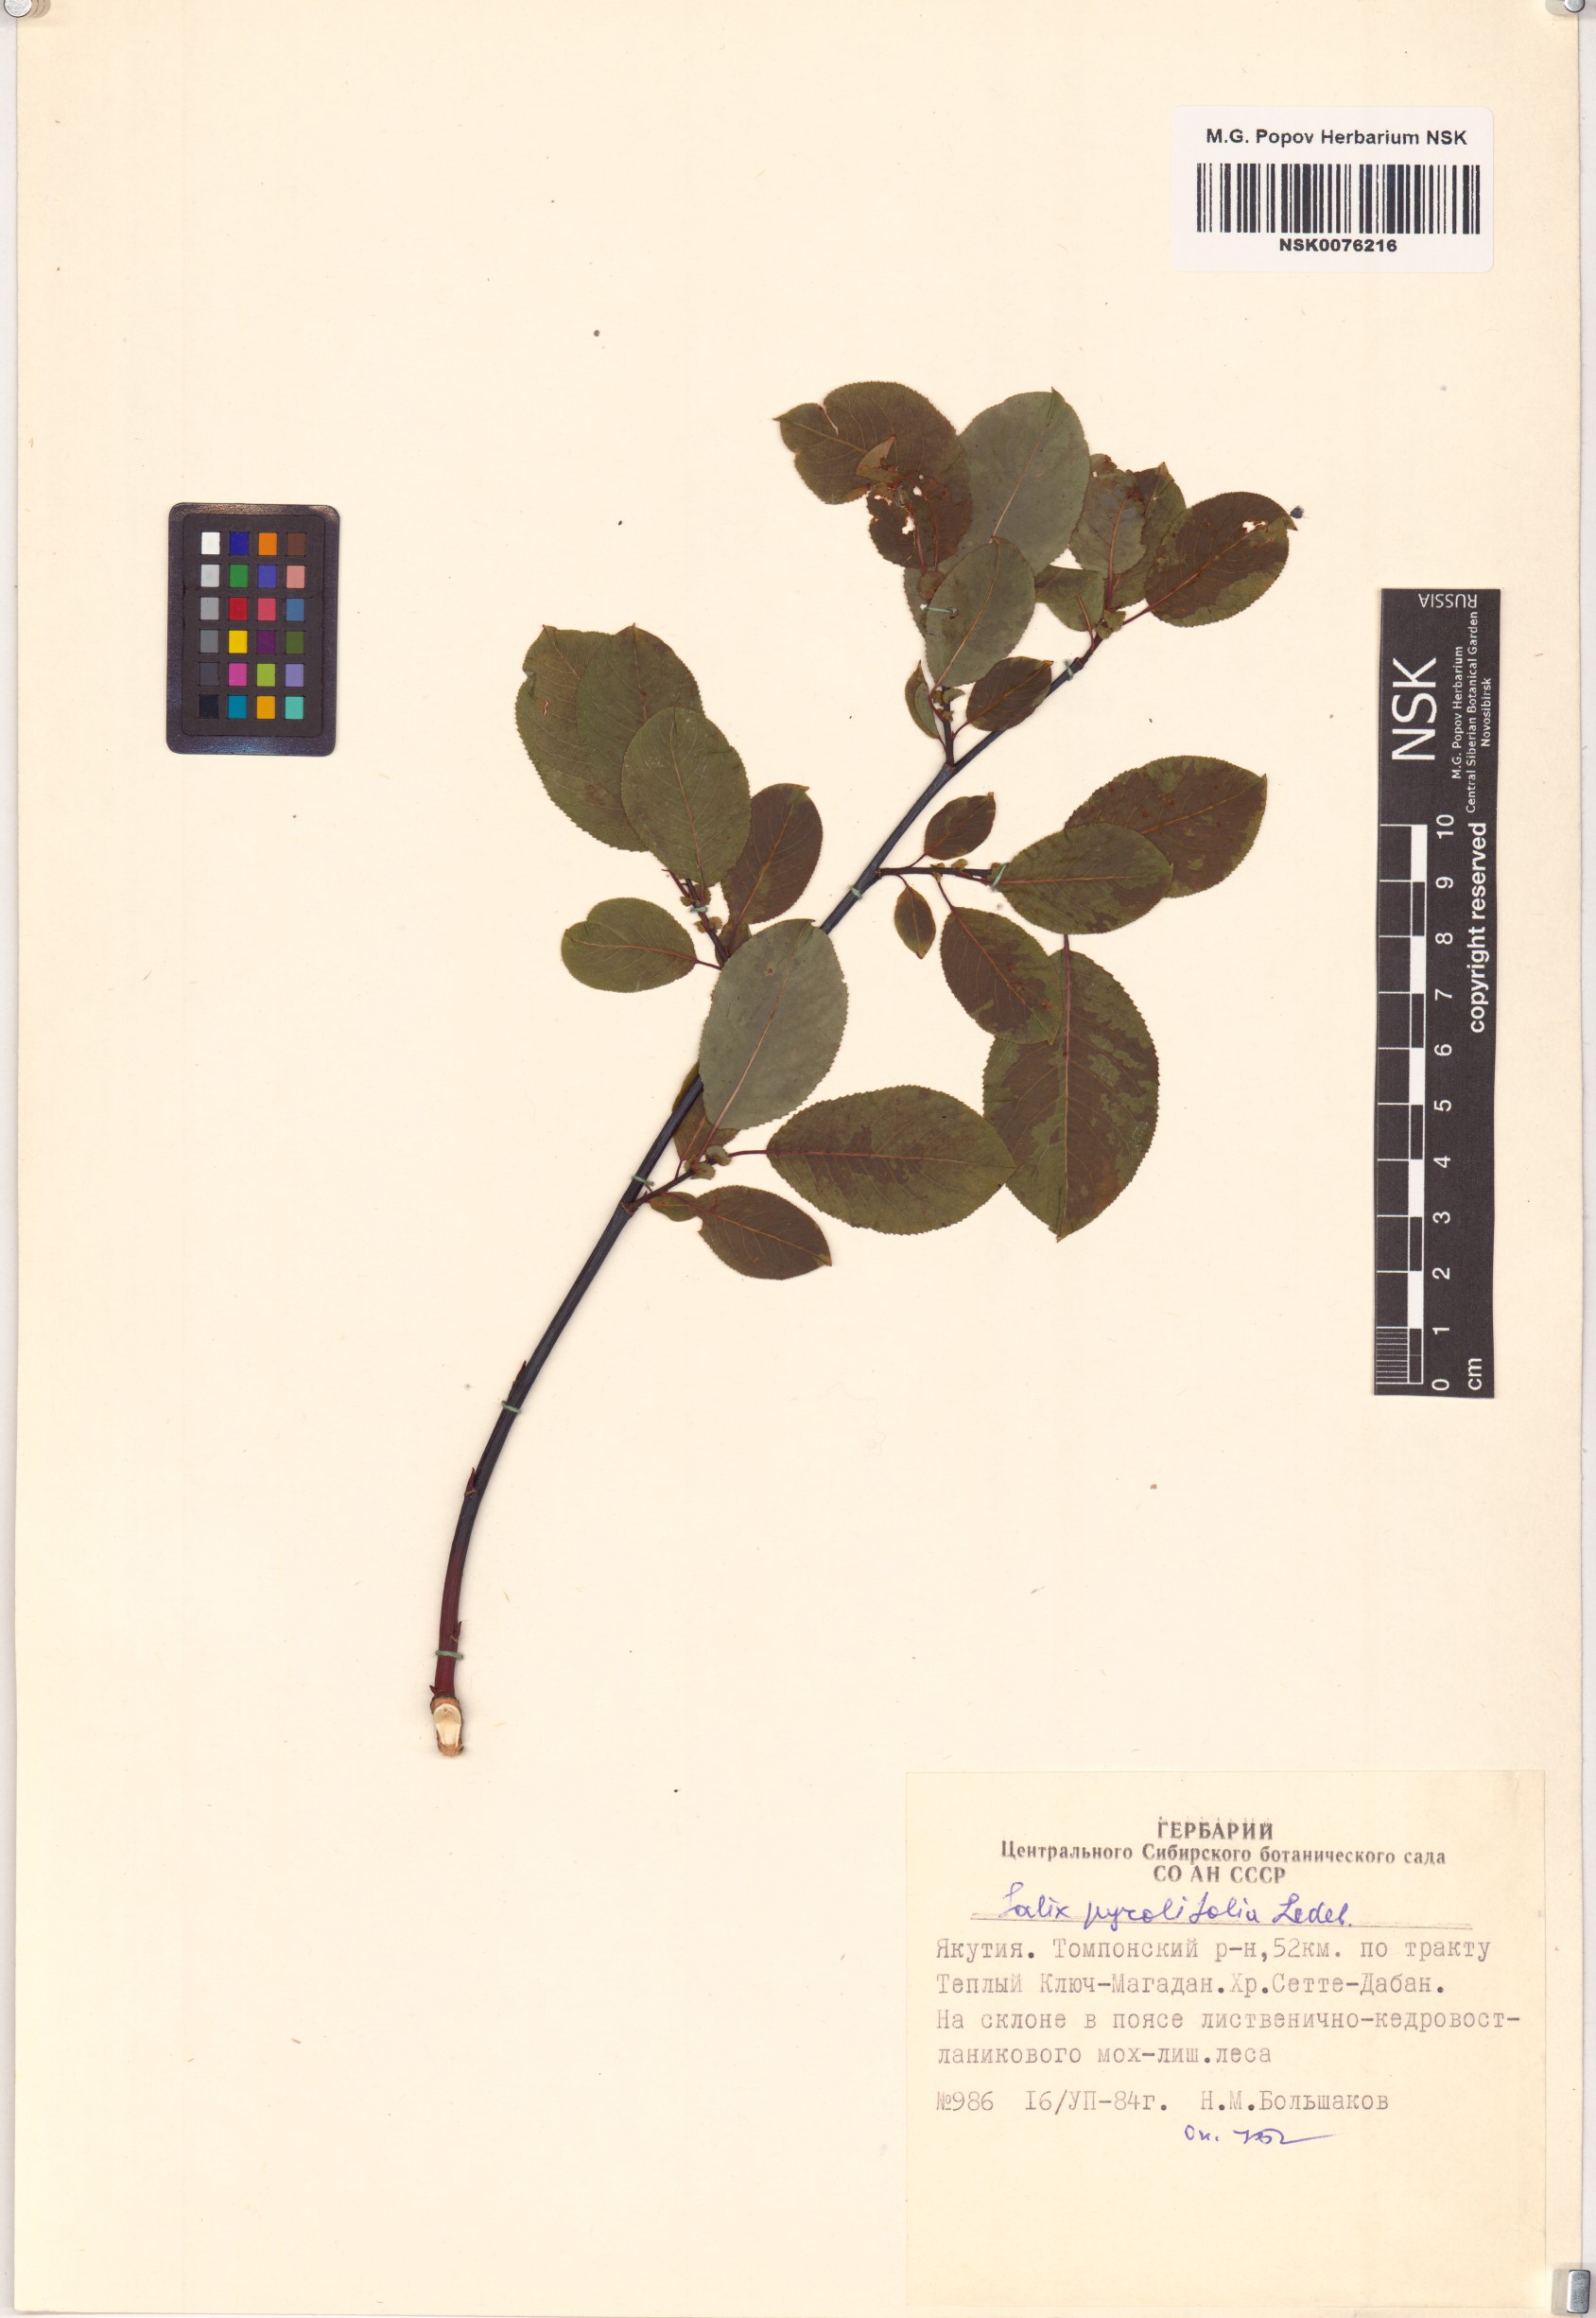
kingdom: Plantae
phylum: Tracheophyta
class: Magnoliopsida
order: Malpighiales
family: Salicaceae
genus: Salix
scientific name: Salix pyrolifolia
